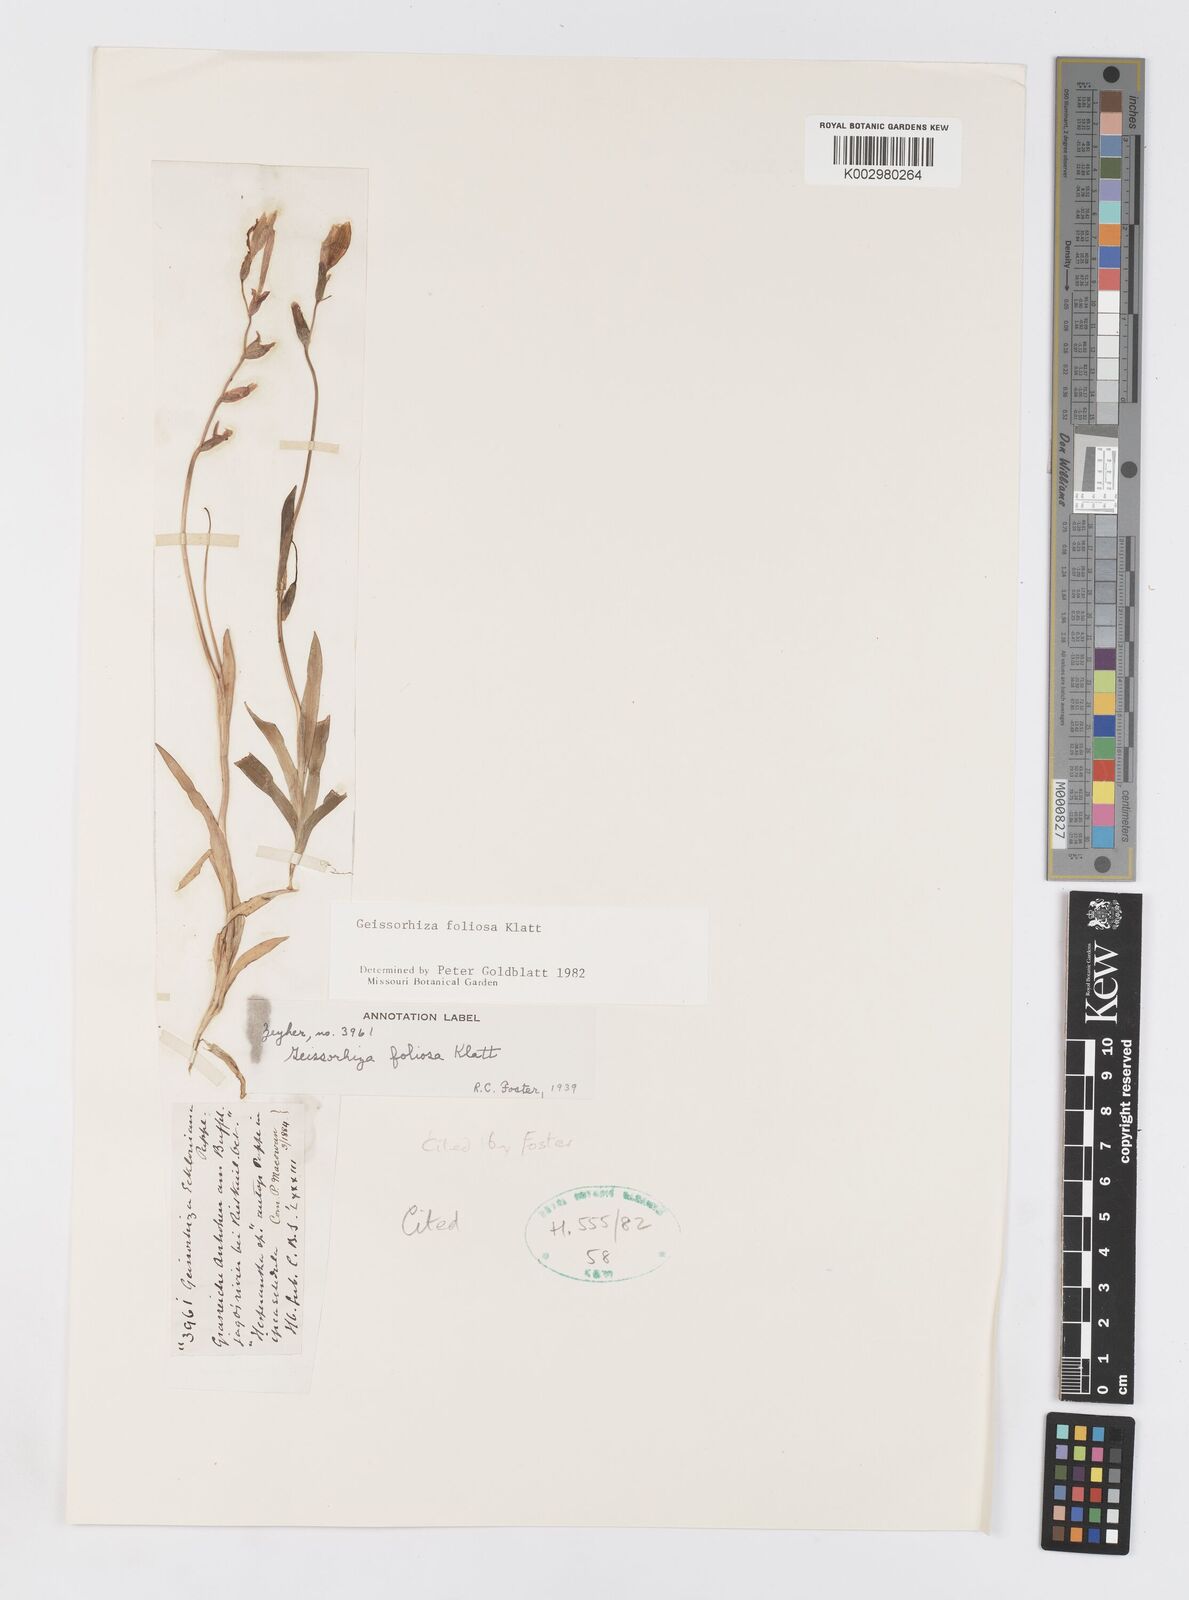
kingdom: Plantae
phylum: Tracheophyta
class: Liliopsida
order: Asparagales
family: Iridaceae
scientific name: Iridaceae
